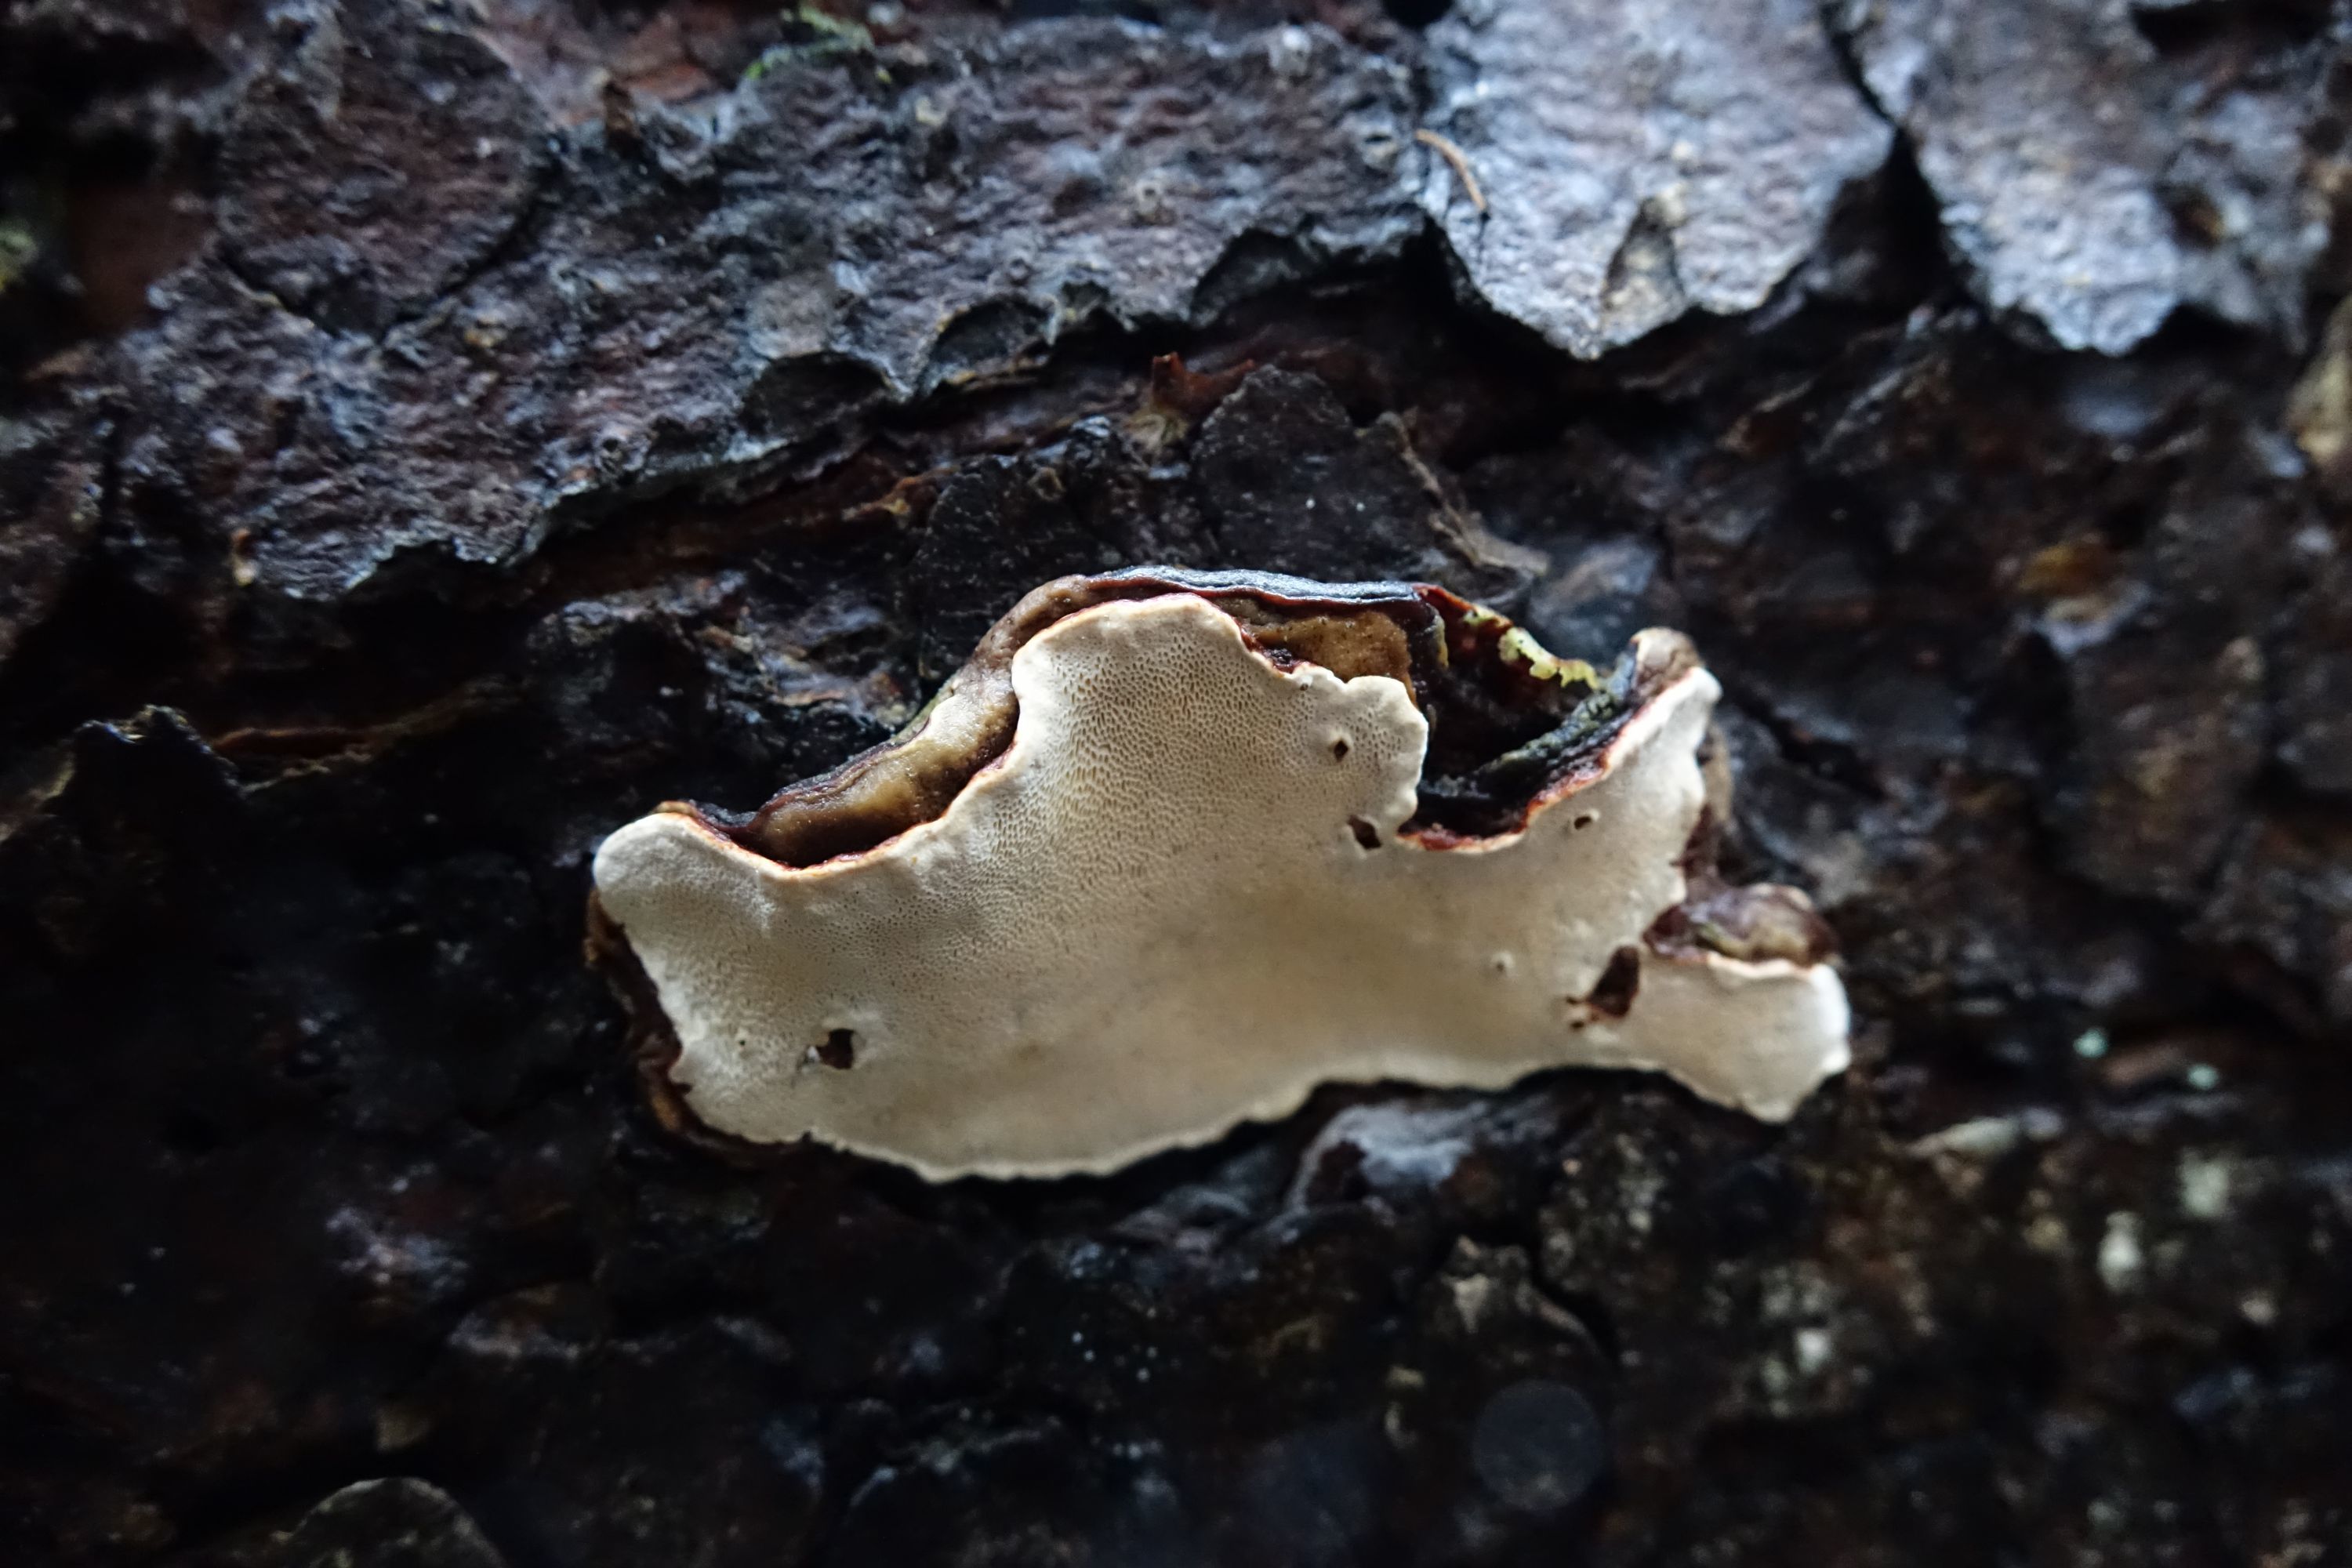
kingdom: Fungi
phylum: Basidiomycota
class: Agaricomycetes
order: Russulales
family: Bondarzewiaceae
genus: Heterobasidion
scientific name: Heterobasidion parviporum
